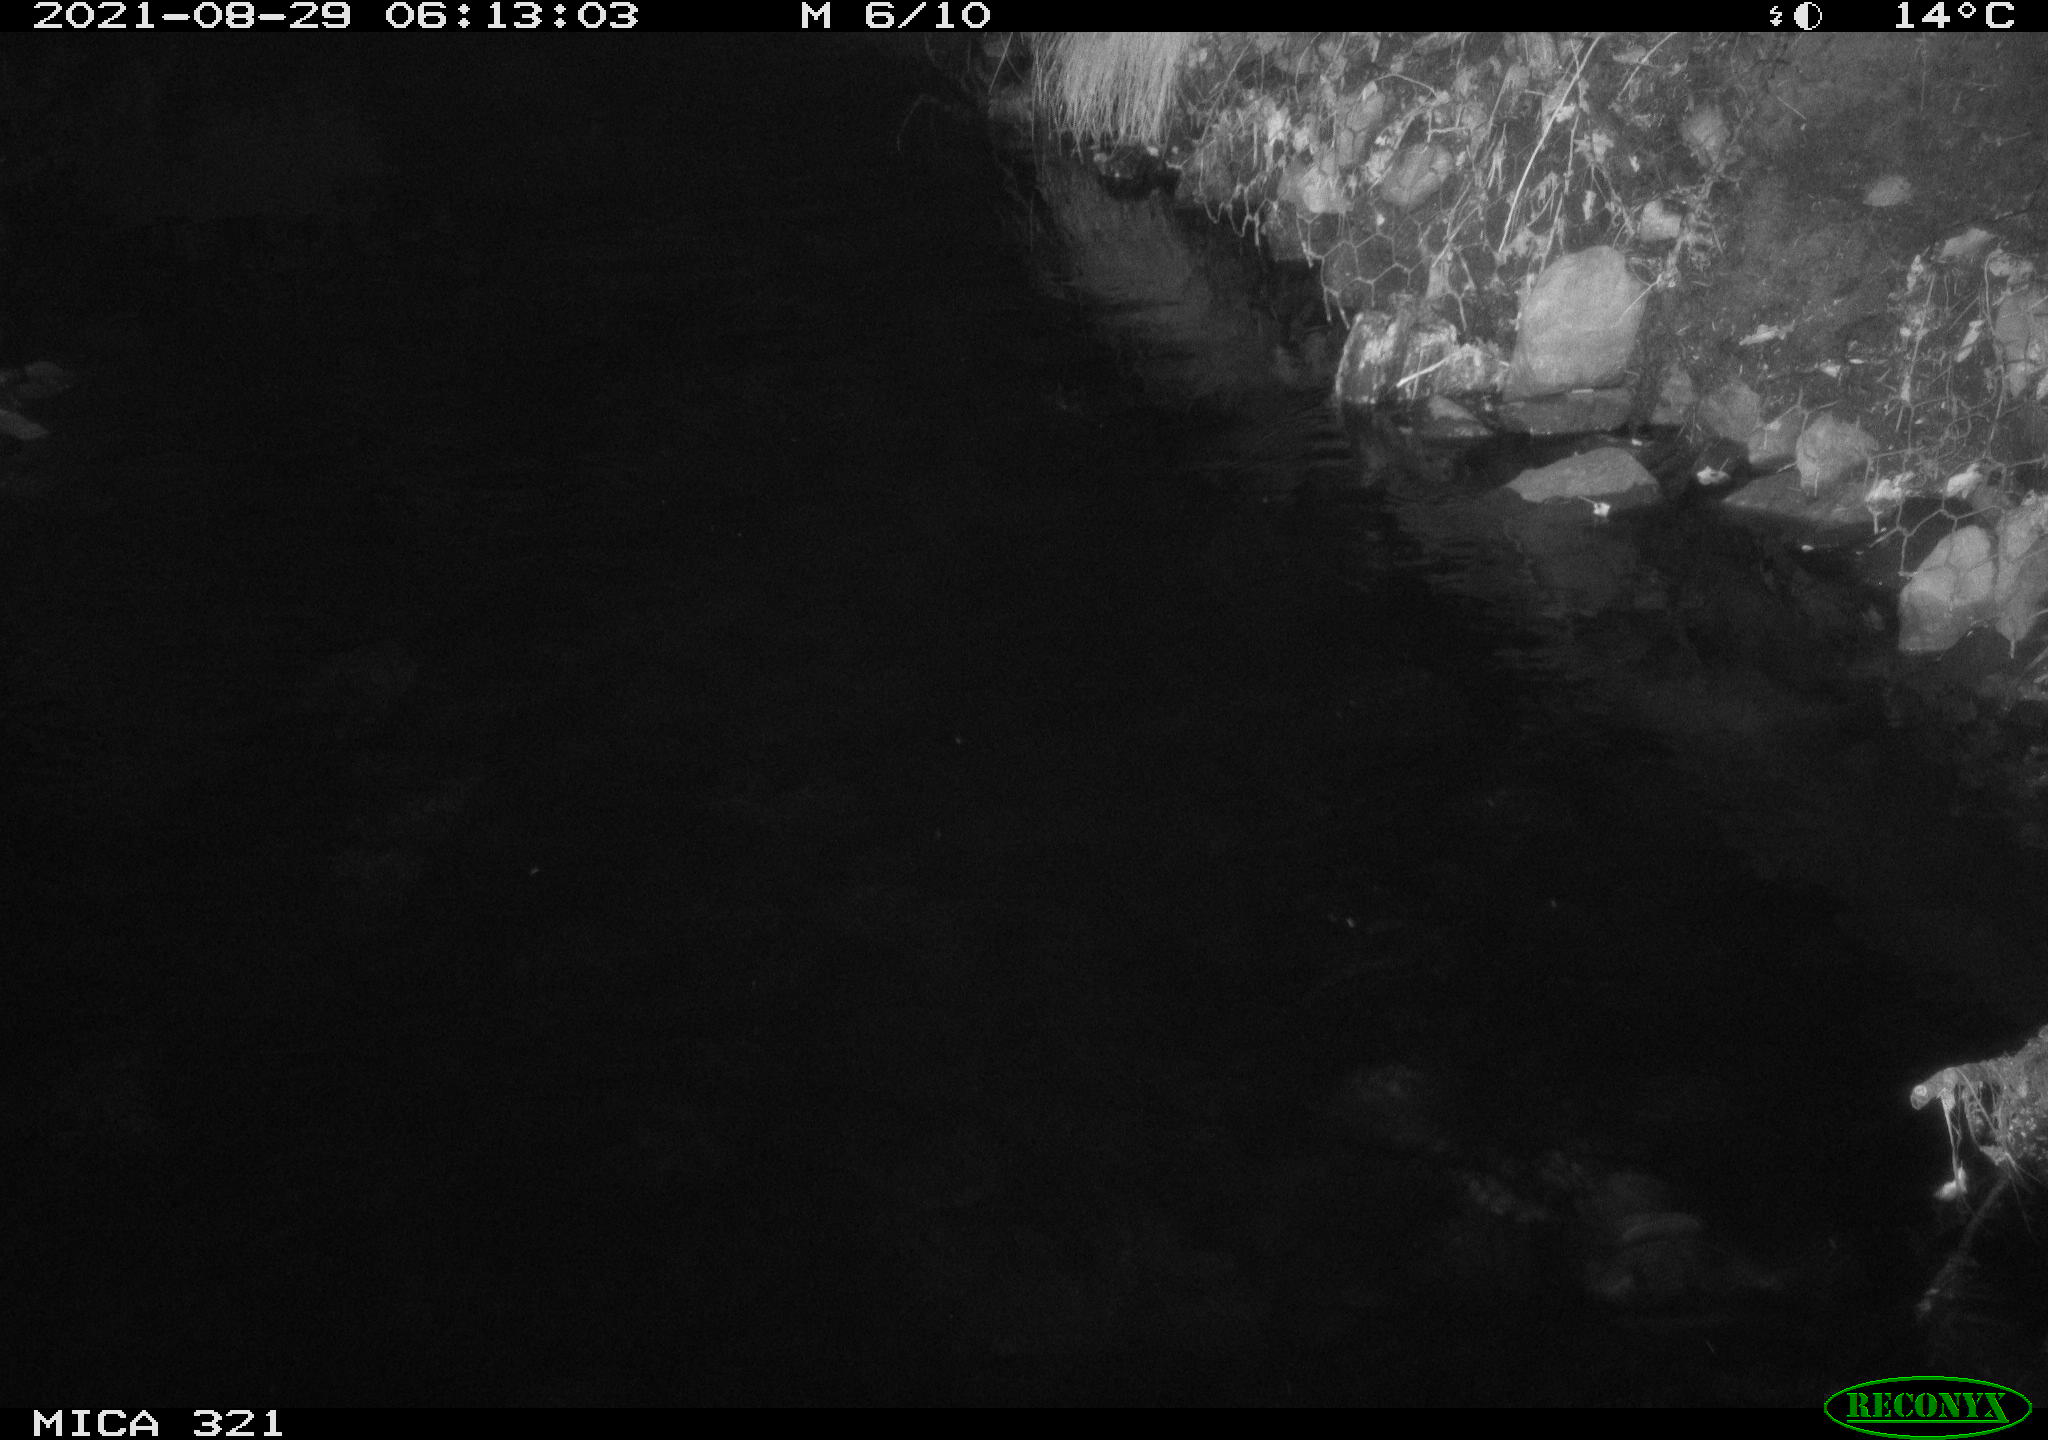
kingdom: Animalia
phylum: Chordata
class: Aves
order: Anseriformes
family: Anatidae
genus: Anas
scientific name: Anas platyrhynchos
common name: Mallard
